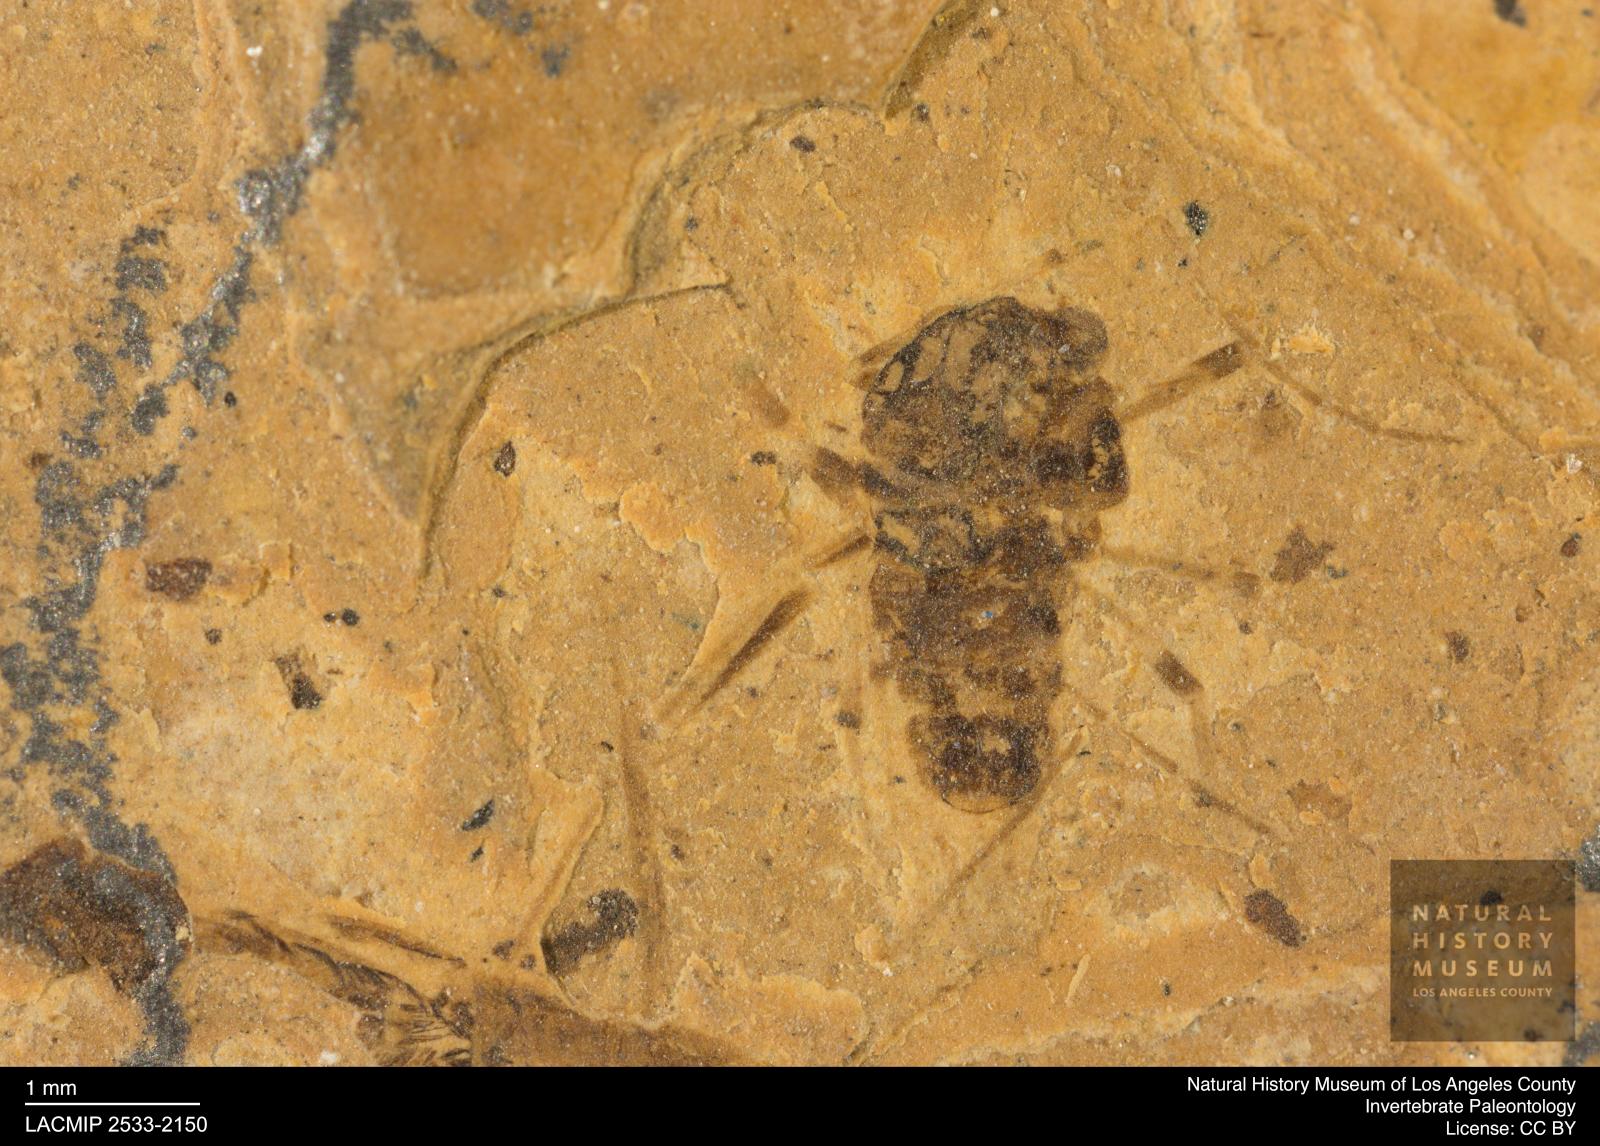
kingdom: Animalia
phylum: Arthropoda
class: Insecta
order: Diptera
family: Chironomidae
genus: Tanypus
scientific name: Tanypus dorminans
